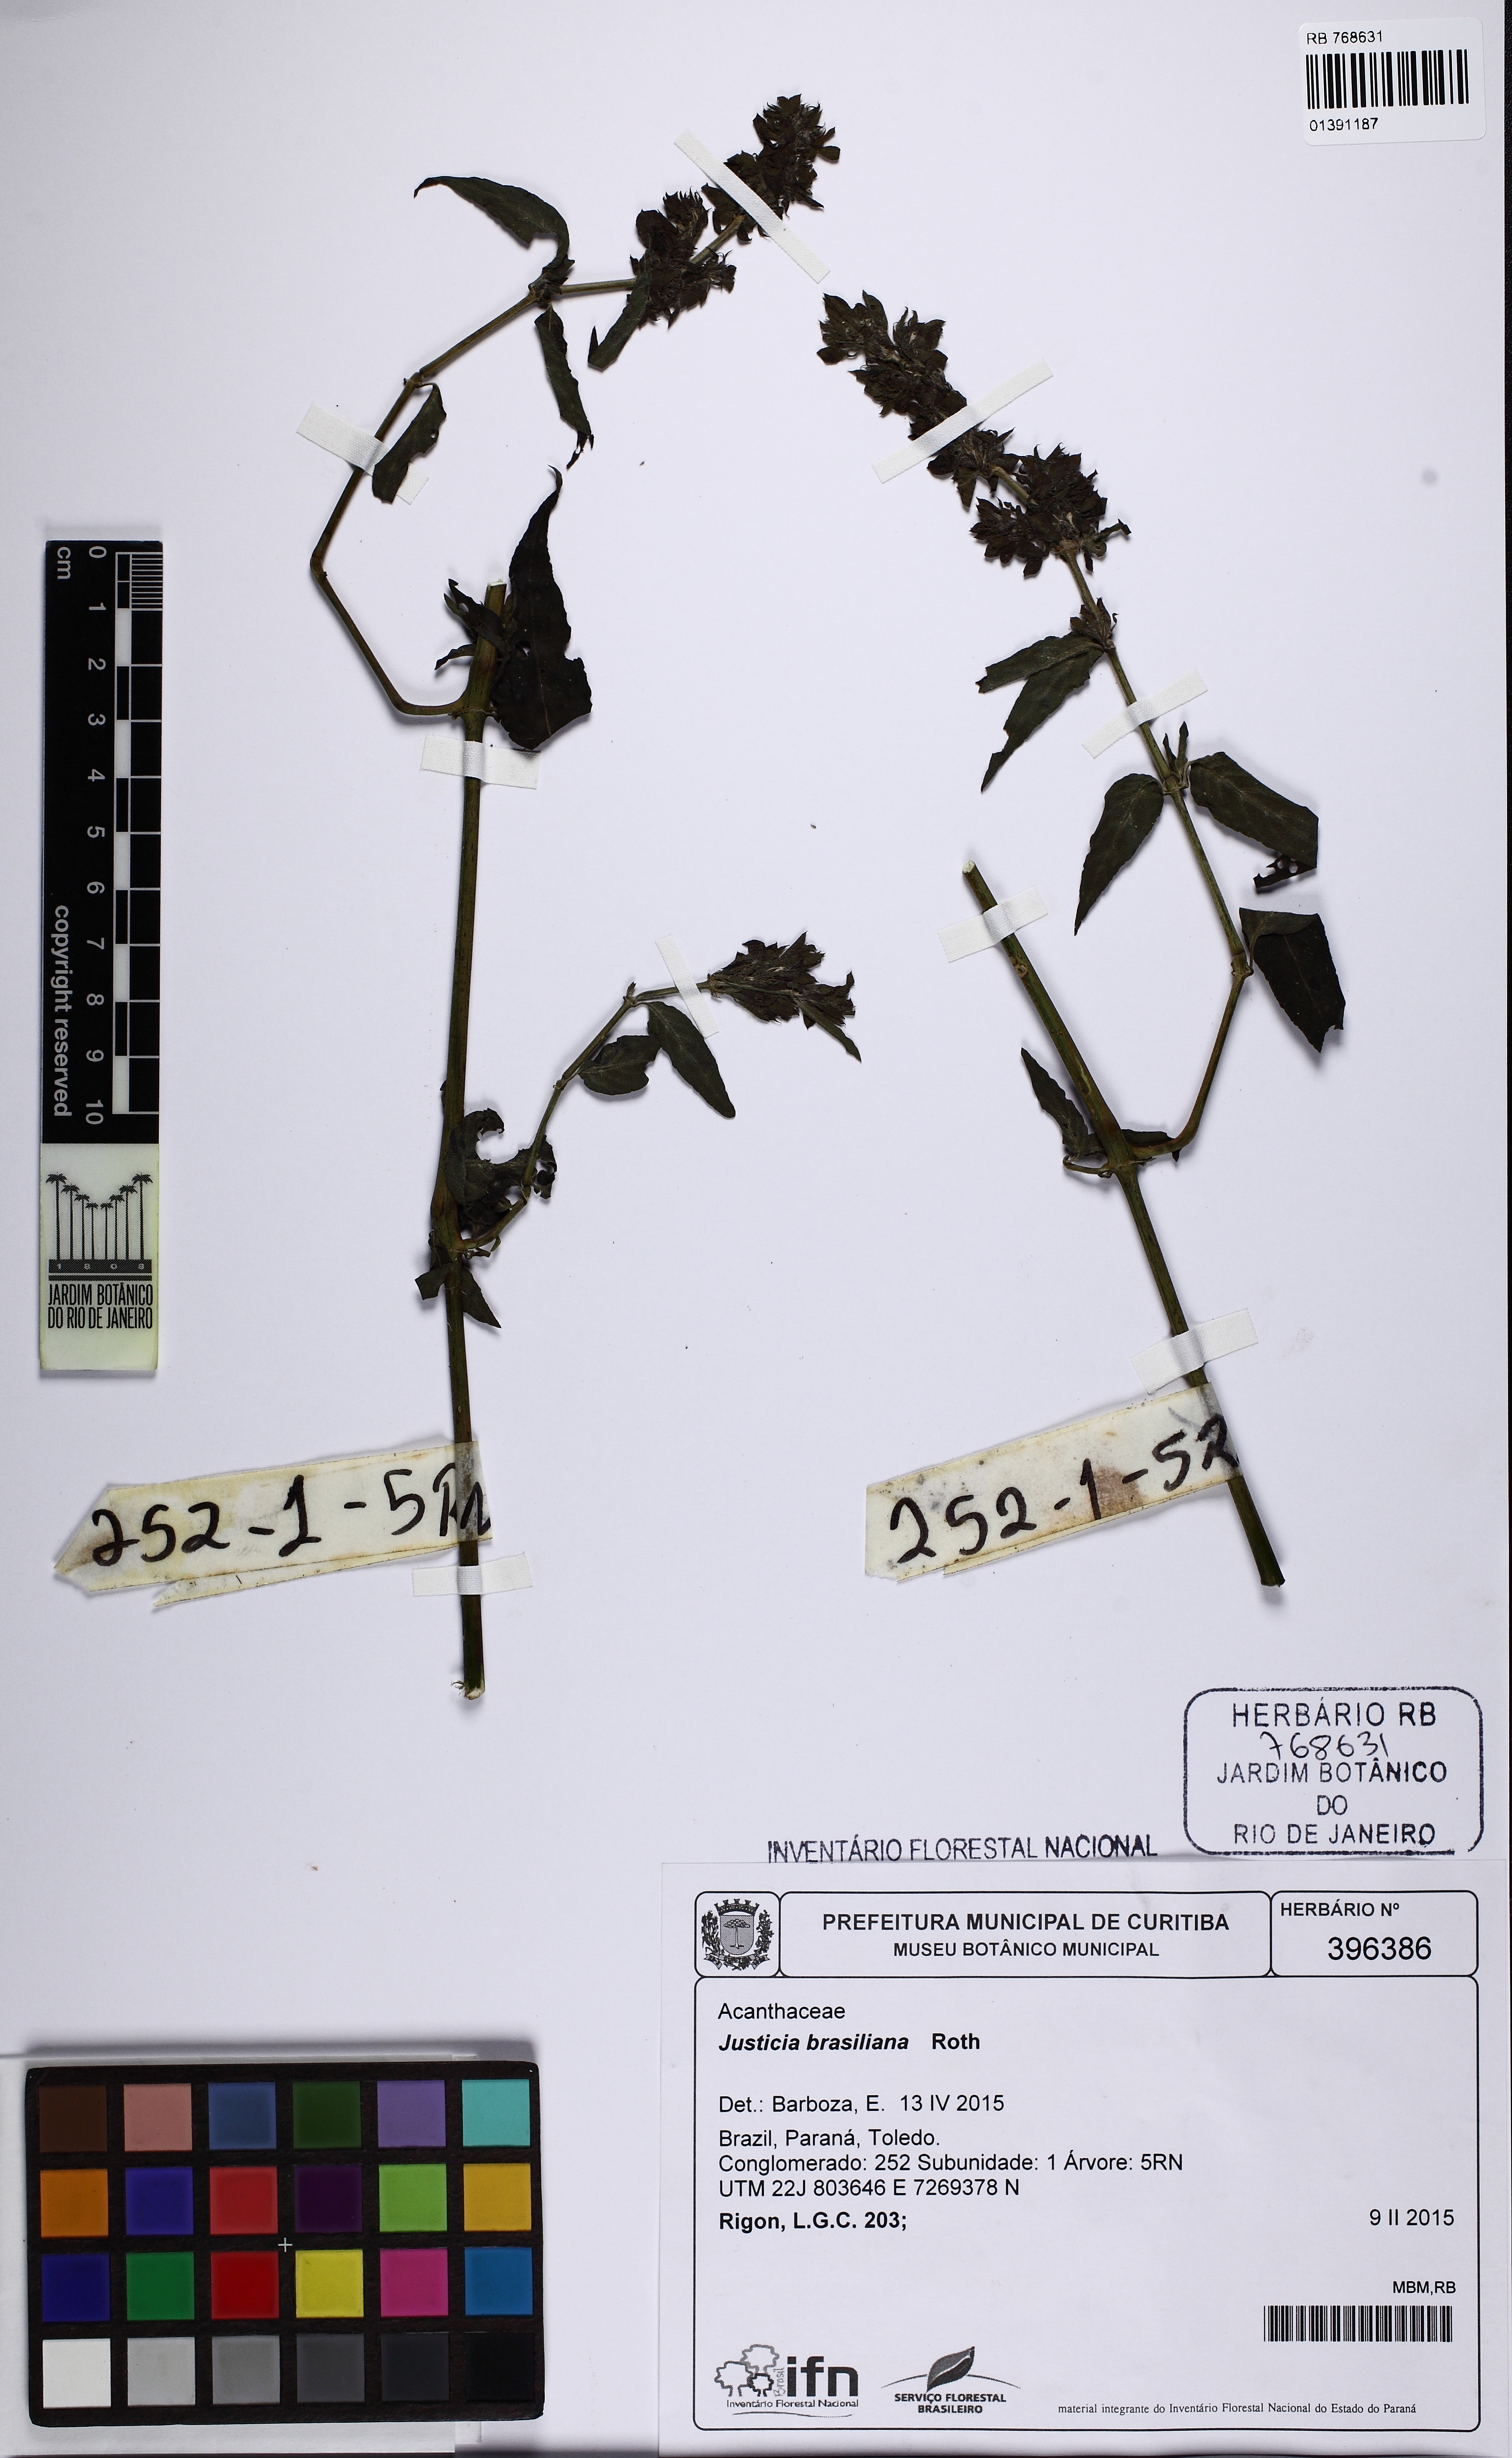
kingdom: Plantae
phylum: Tracheophyta
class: Magnoliopsida
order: Lamiales
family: Acanthaceae
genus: Justicia
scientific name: Justicia brasiliana
